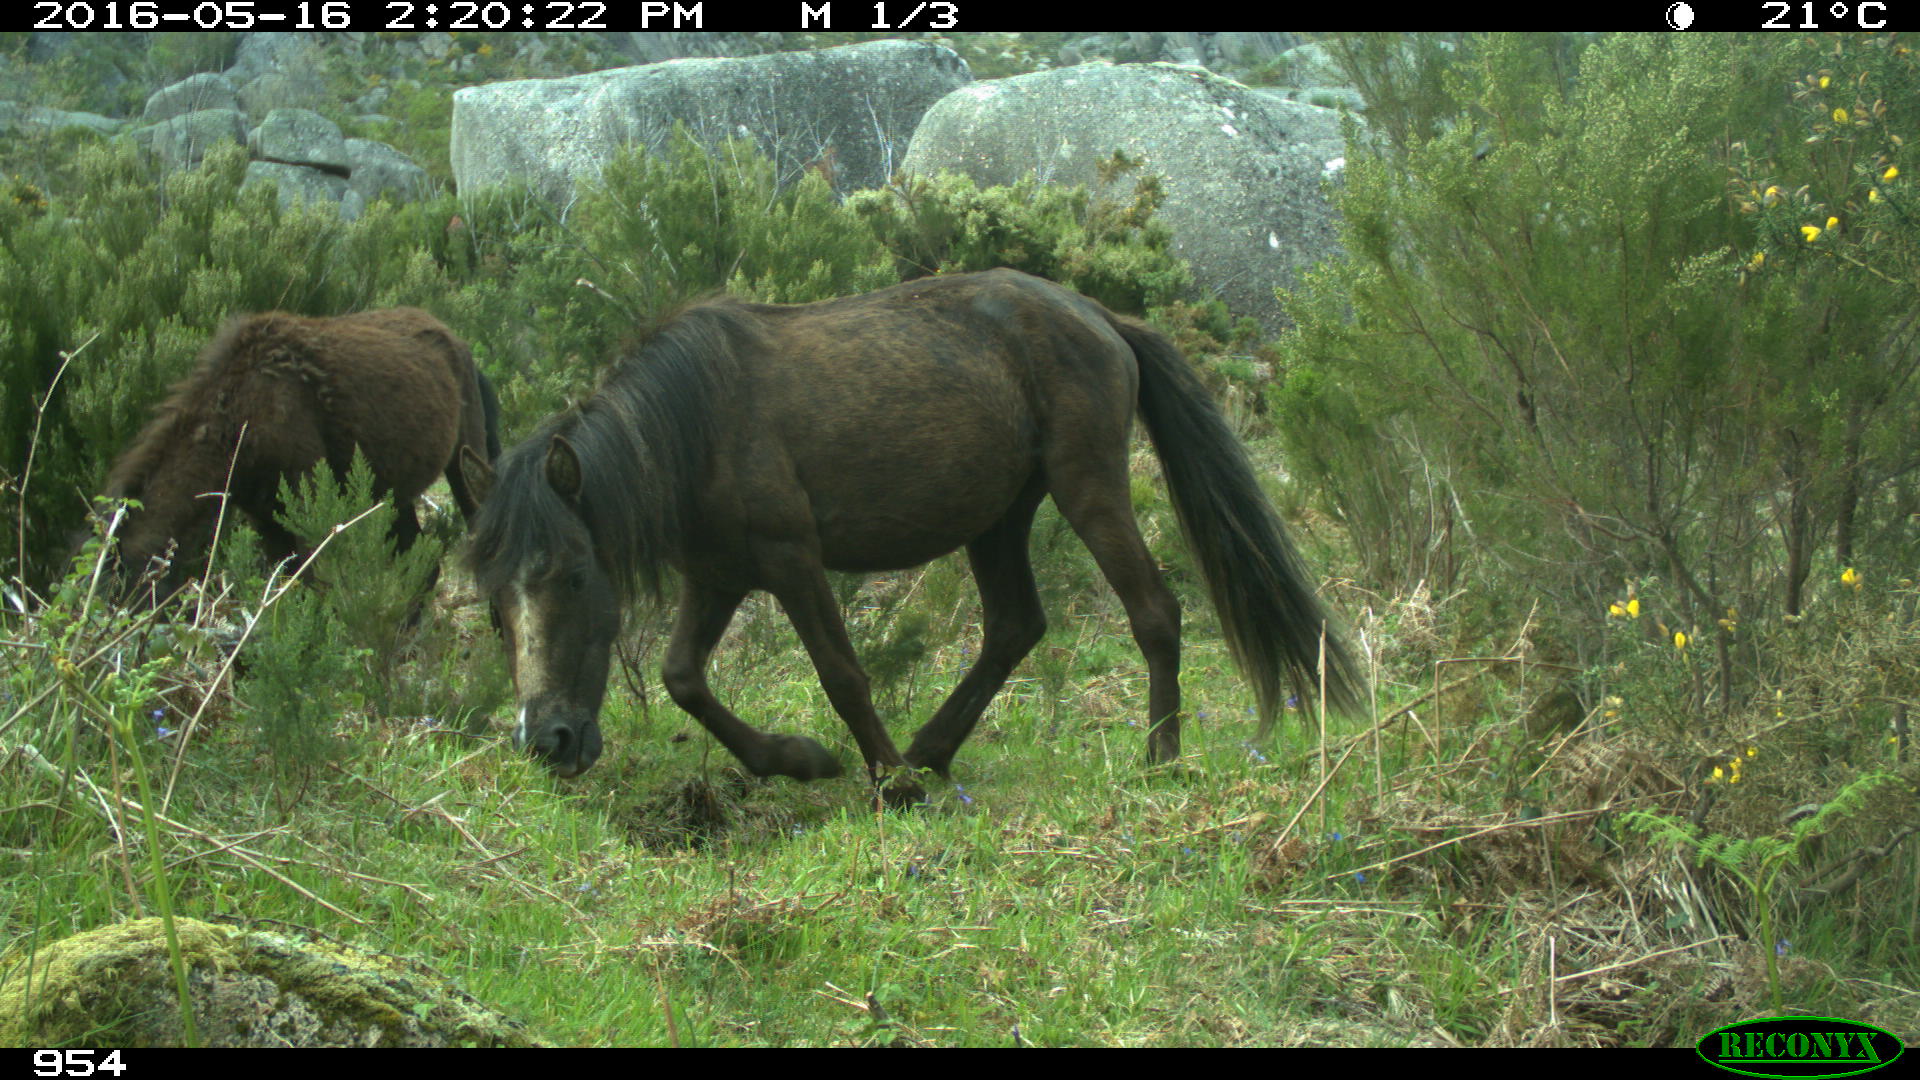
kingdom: Animalia
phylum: Chordata
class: Mammalia
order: Perissodactyla
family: Equidae
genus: Equus
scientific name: Equus caballus
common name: Horse
